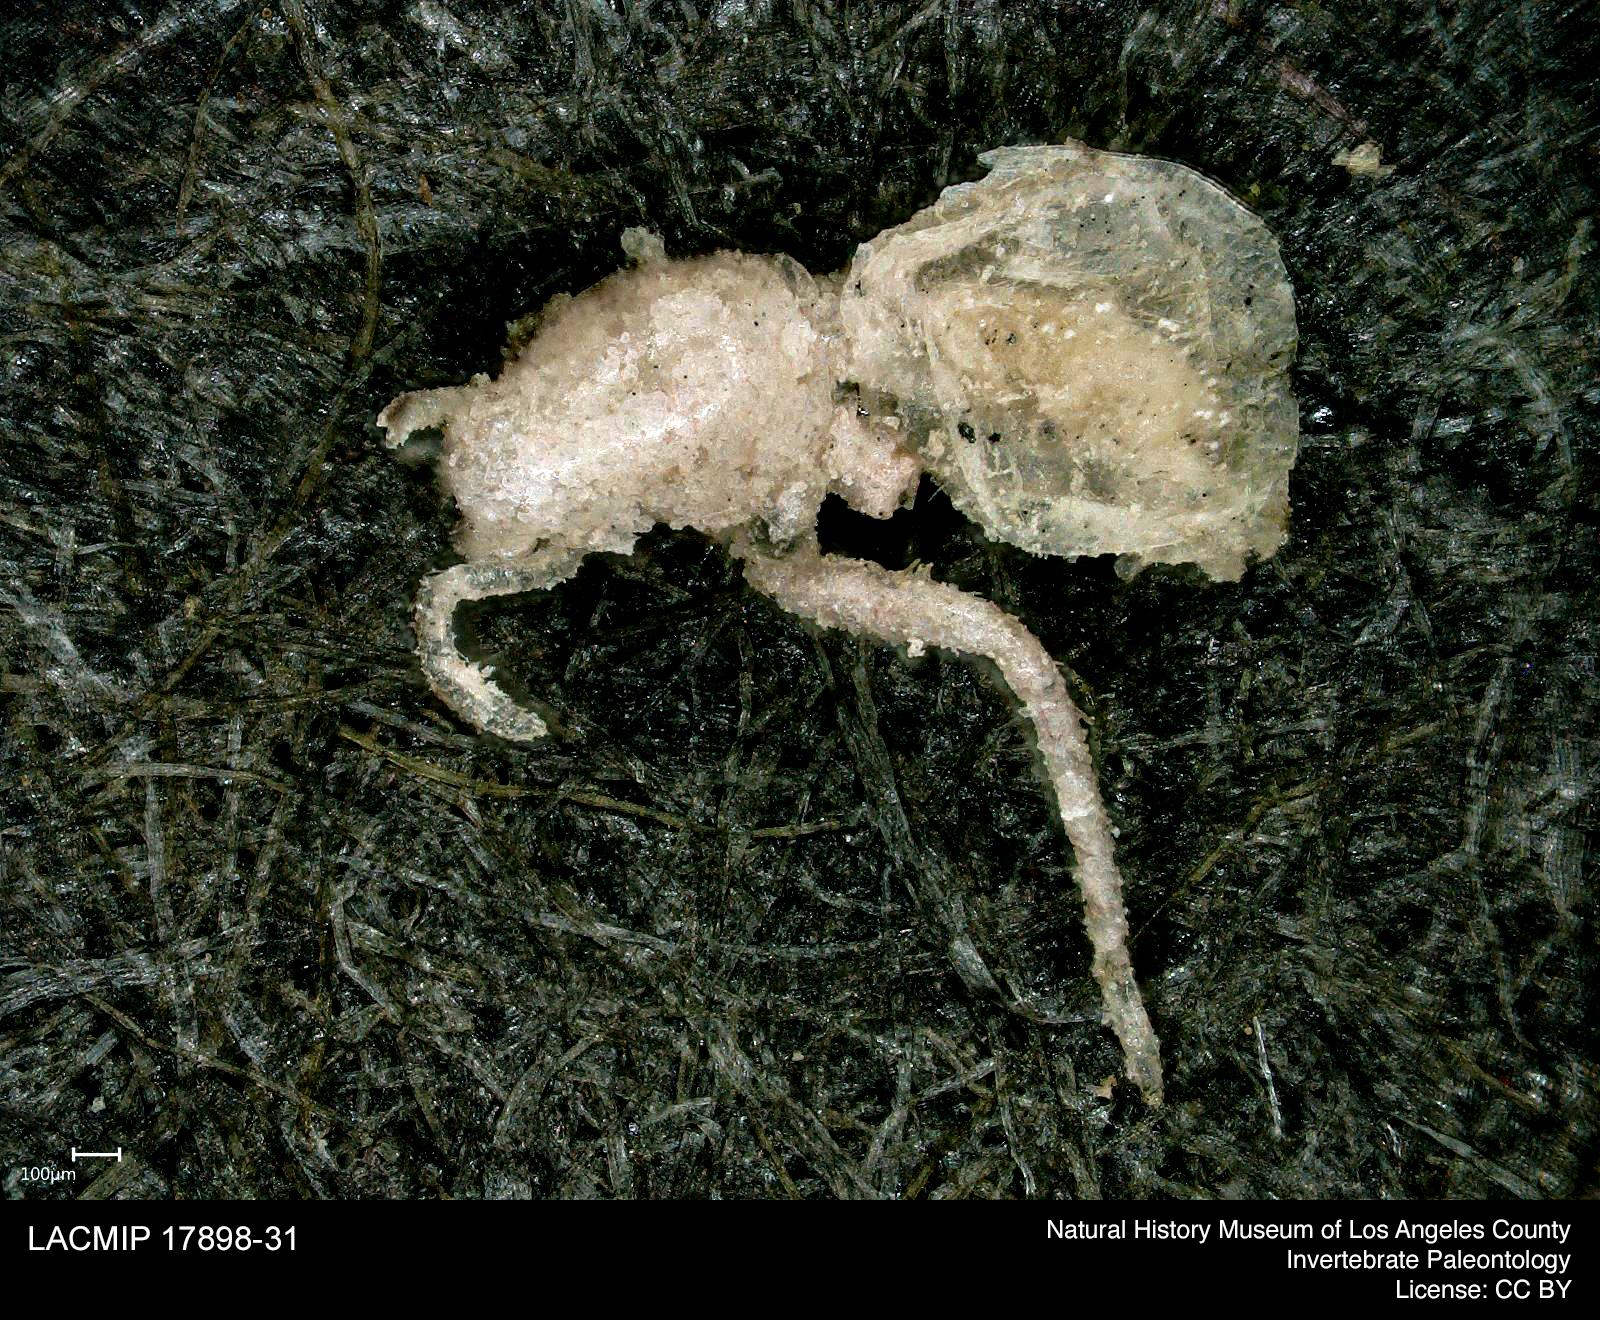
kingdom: Animalia
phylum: Arthropoda
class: Arachnida
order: Araneae
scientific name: Araneae
